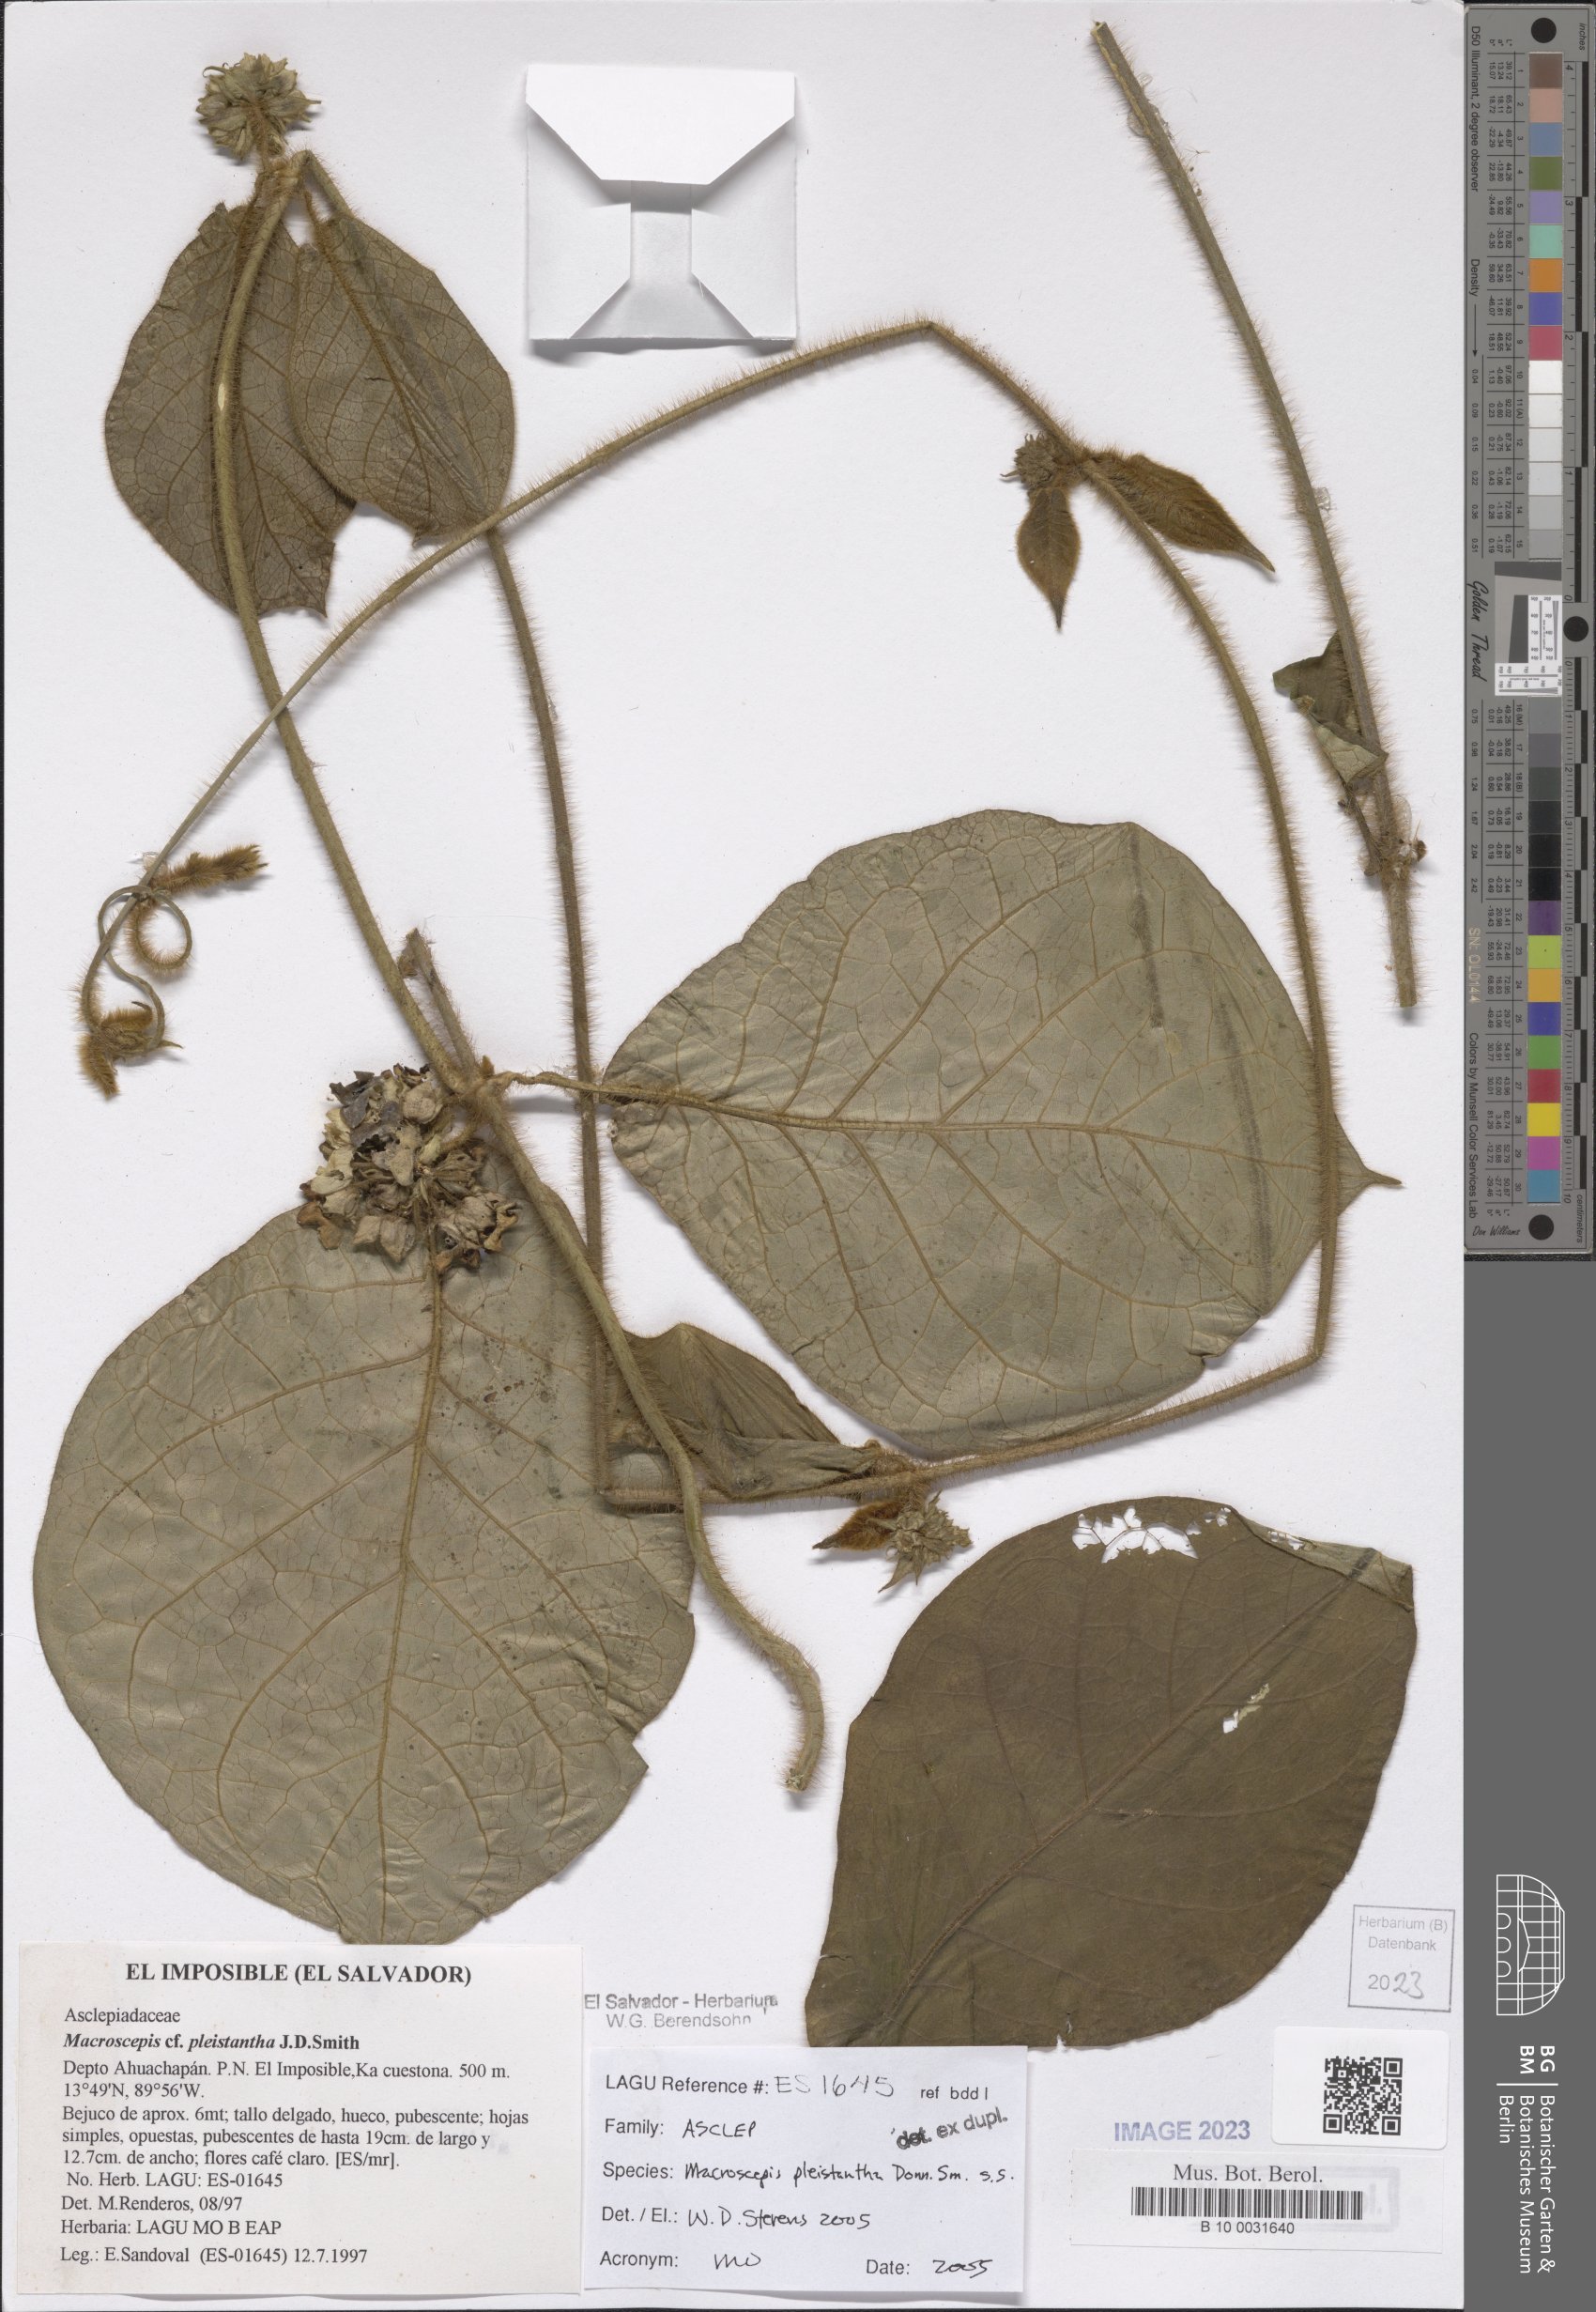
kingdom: Plantae
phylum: Tracheophyta
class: Magnoliopsida
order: Gentianales
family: Apocynaceae
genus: Macroscepis
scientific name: Macroscepis pleistantha
